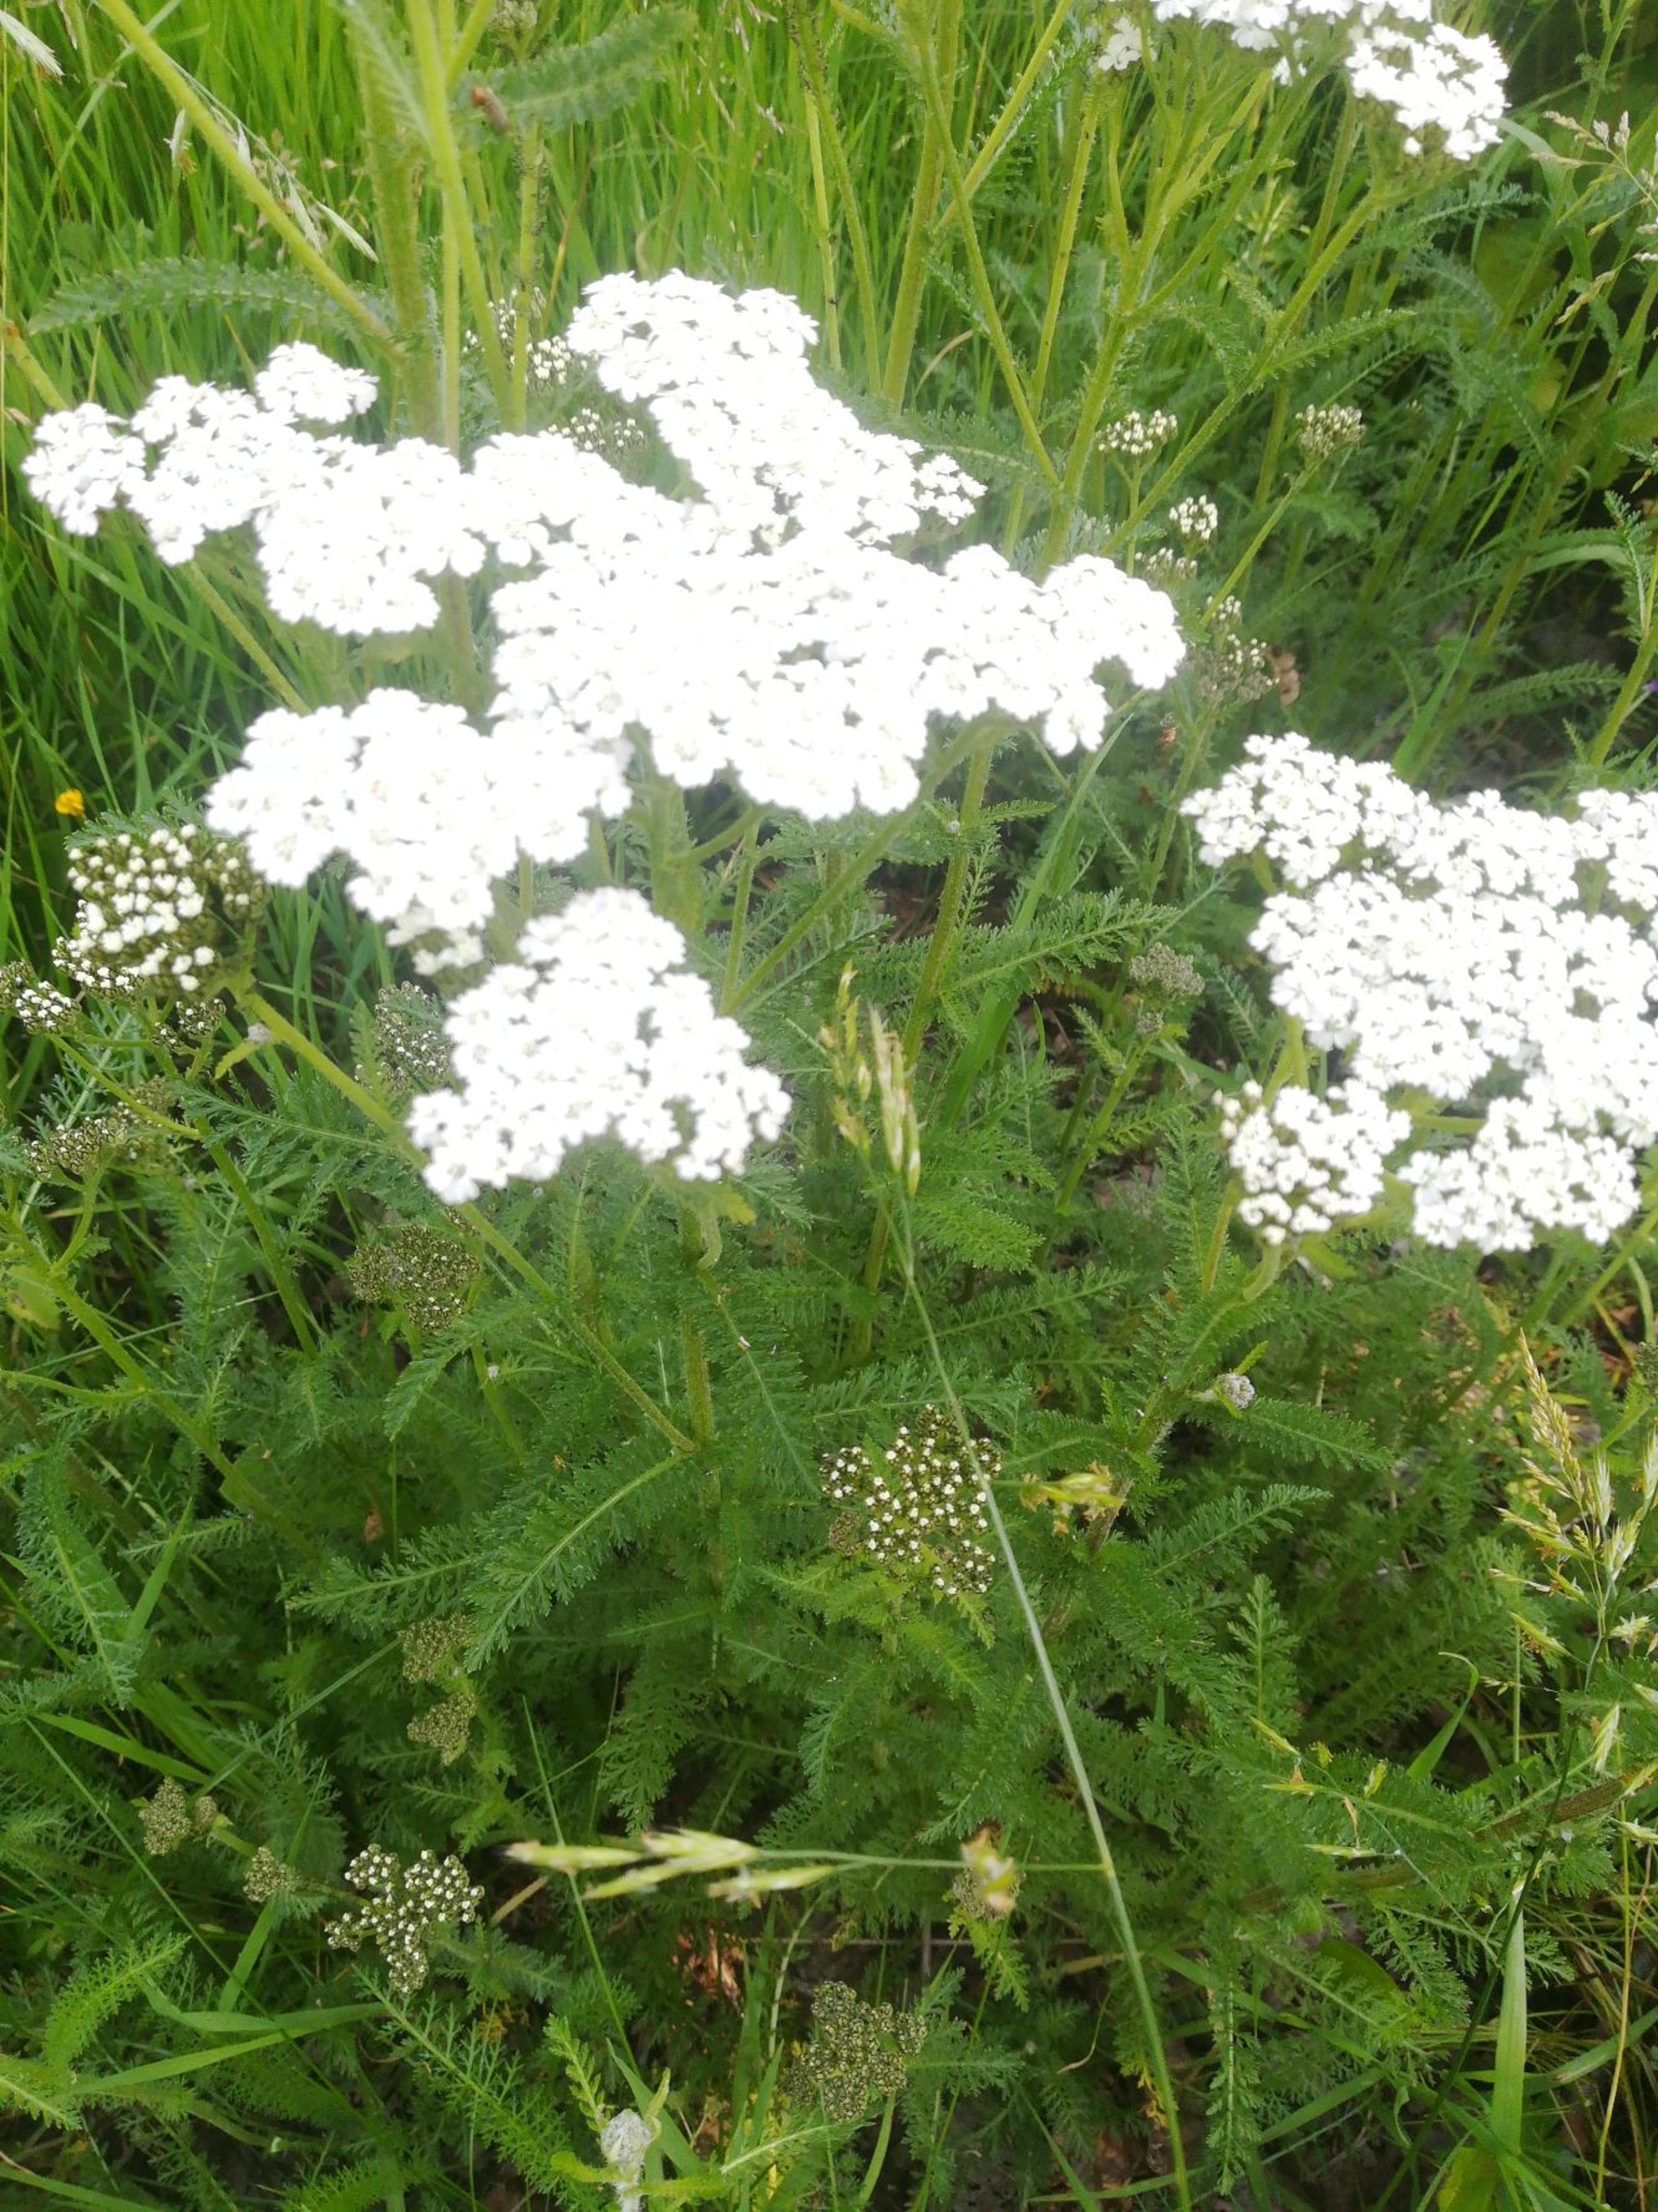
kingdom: Plantae
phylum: Tracheophyta
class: Magnoliopsida
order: Asterales
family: Asteraceae
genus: Achillea
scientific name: Achillea millefolium
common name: Almindelig røllike
